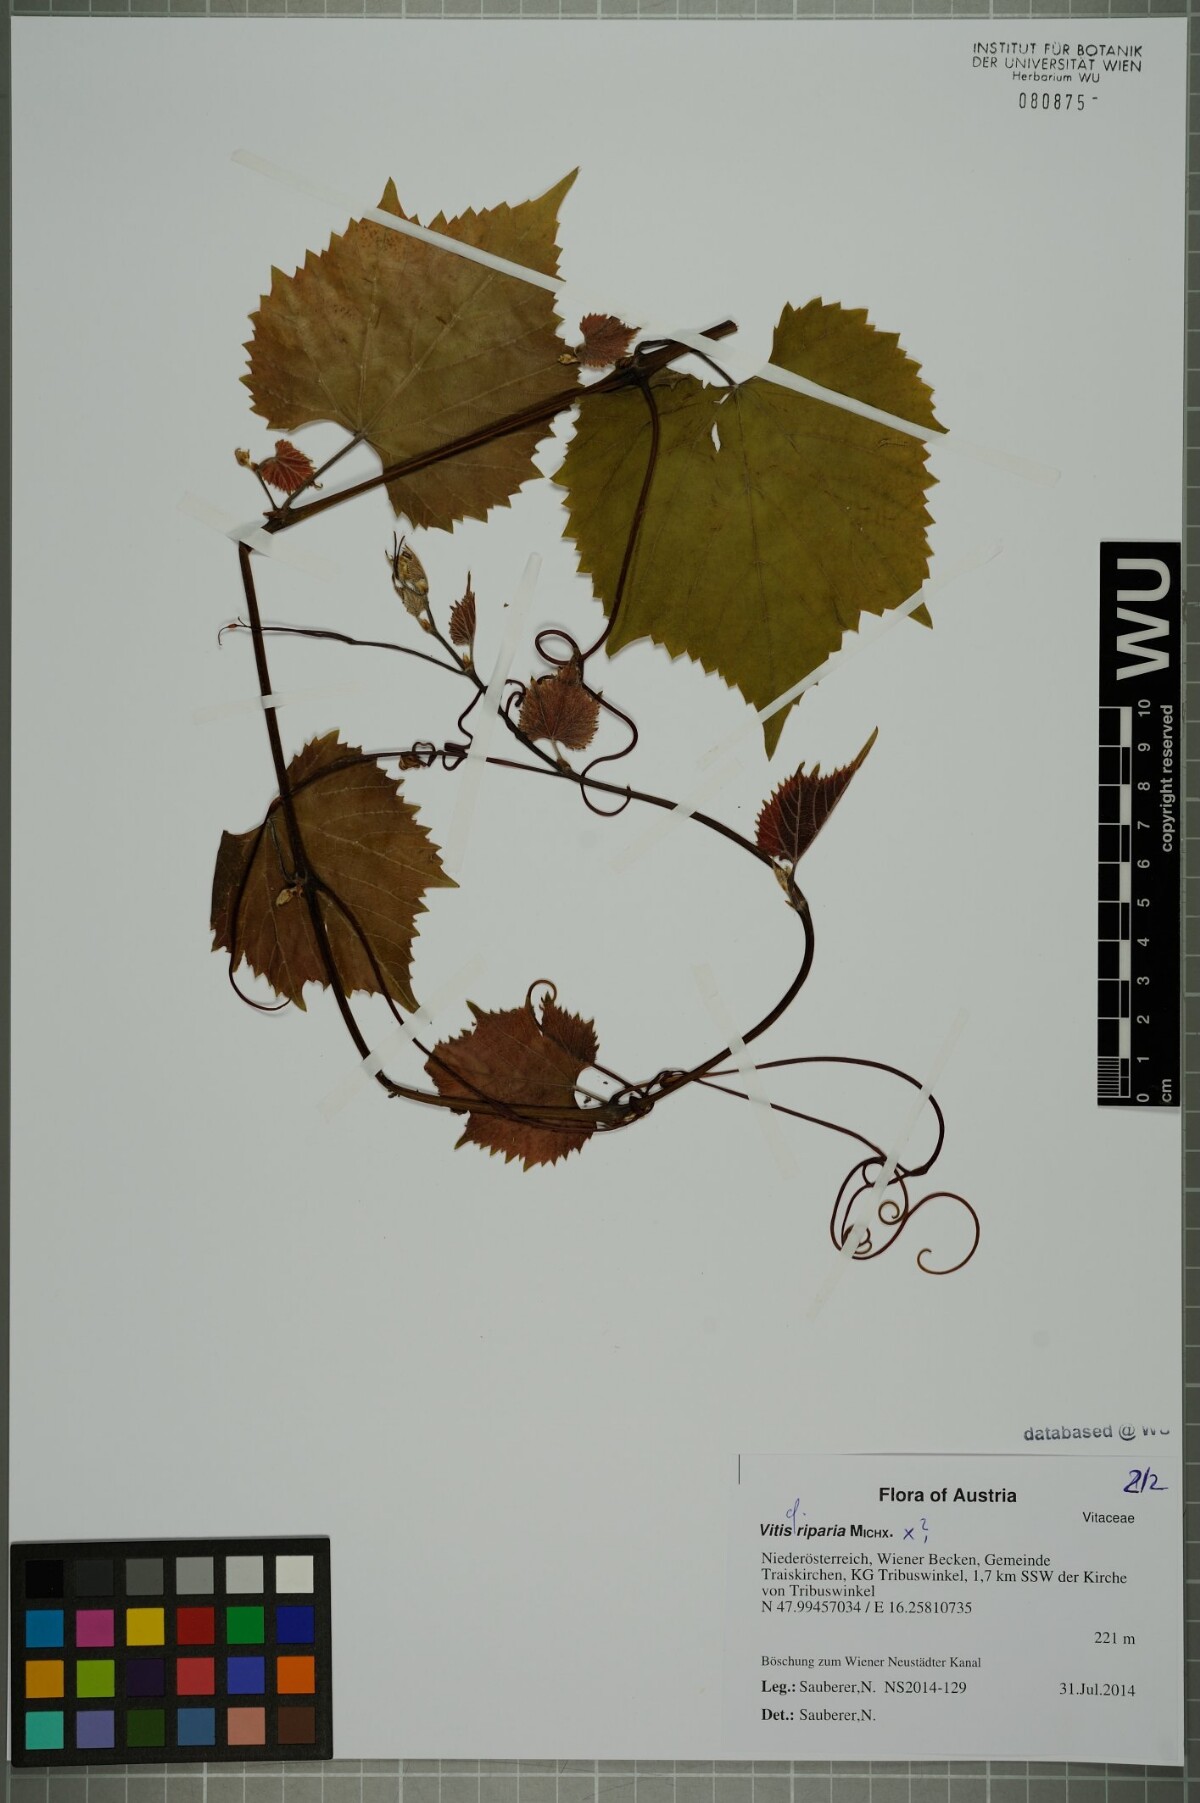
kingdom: Plantae
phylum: Tracheophyta
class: Magnoliopsida
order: Vitales
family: Vitaceae
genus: Vitis
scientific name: Vitis riparia
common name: Frost grape
